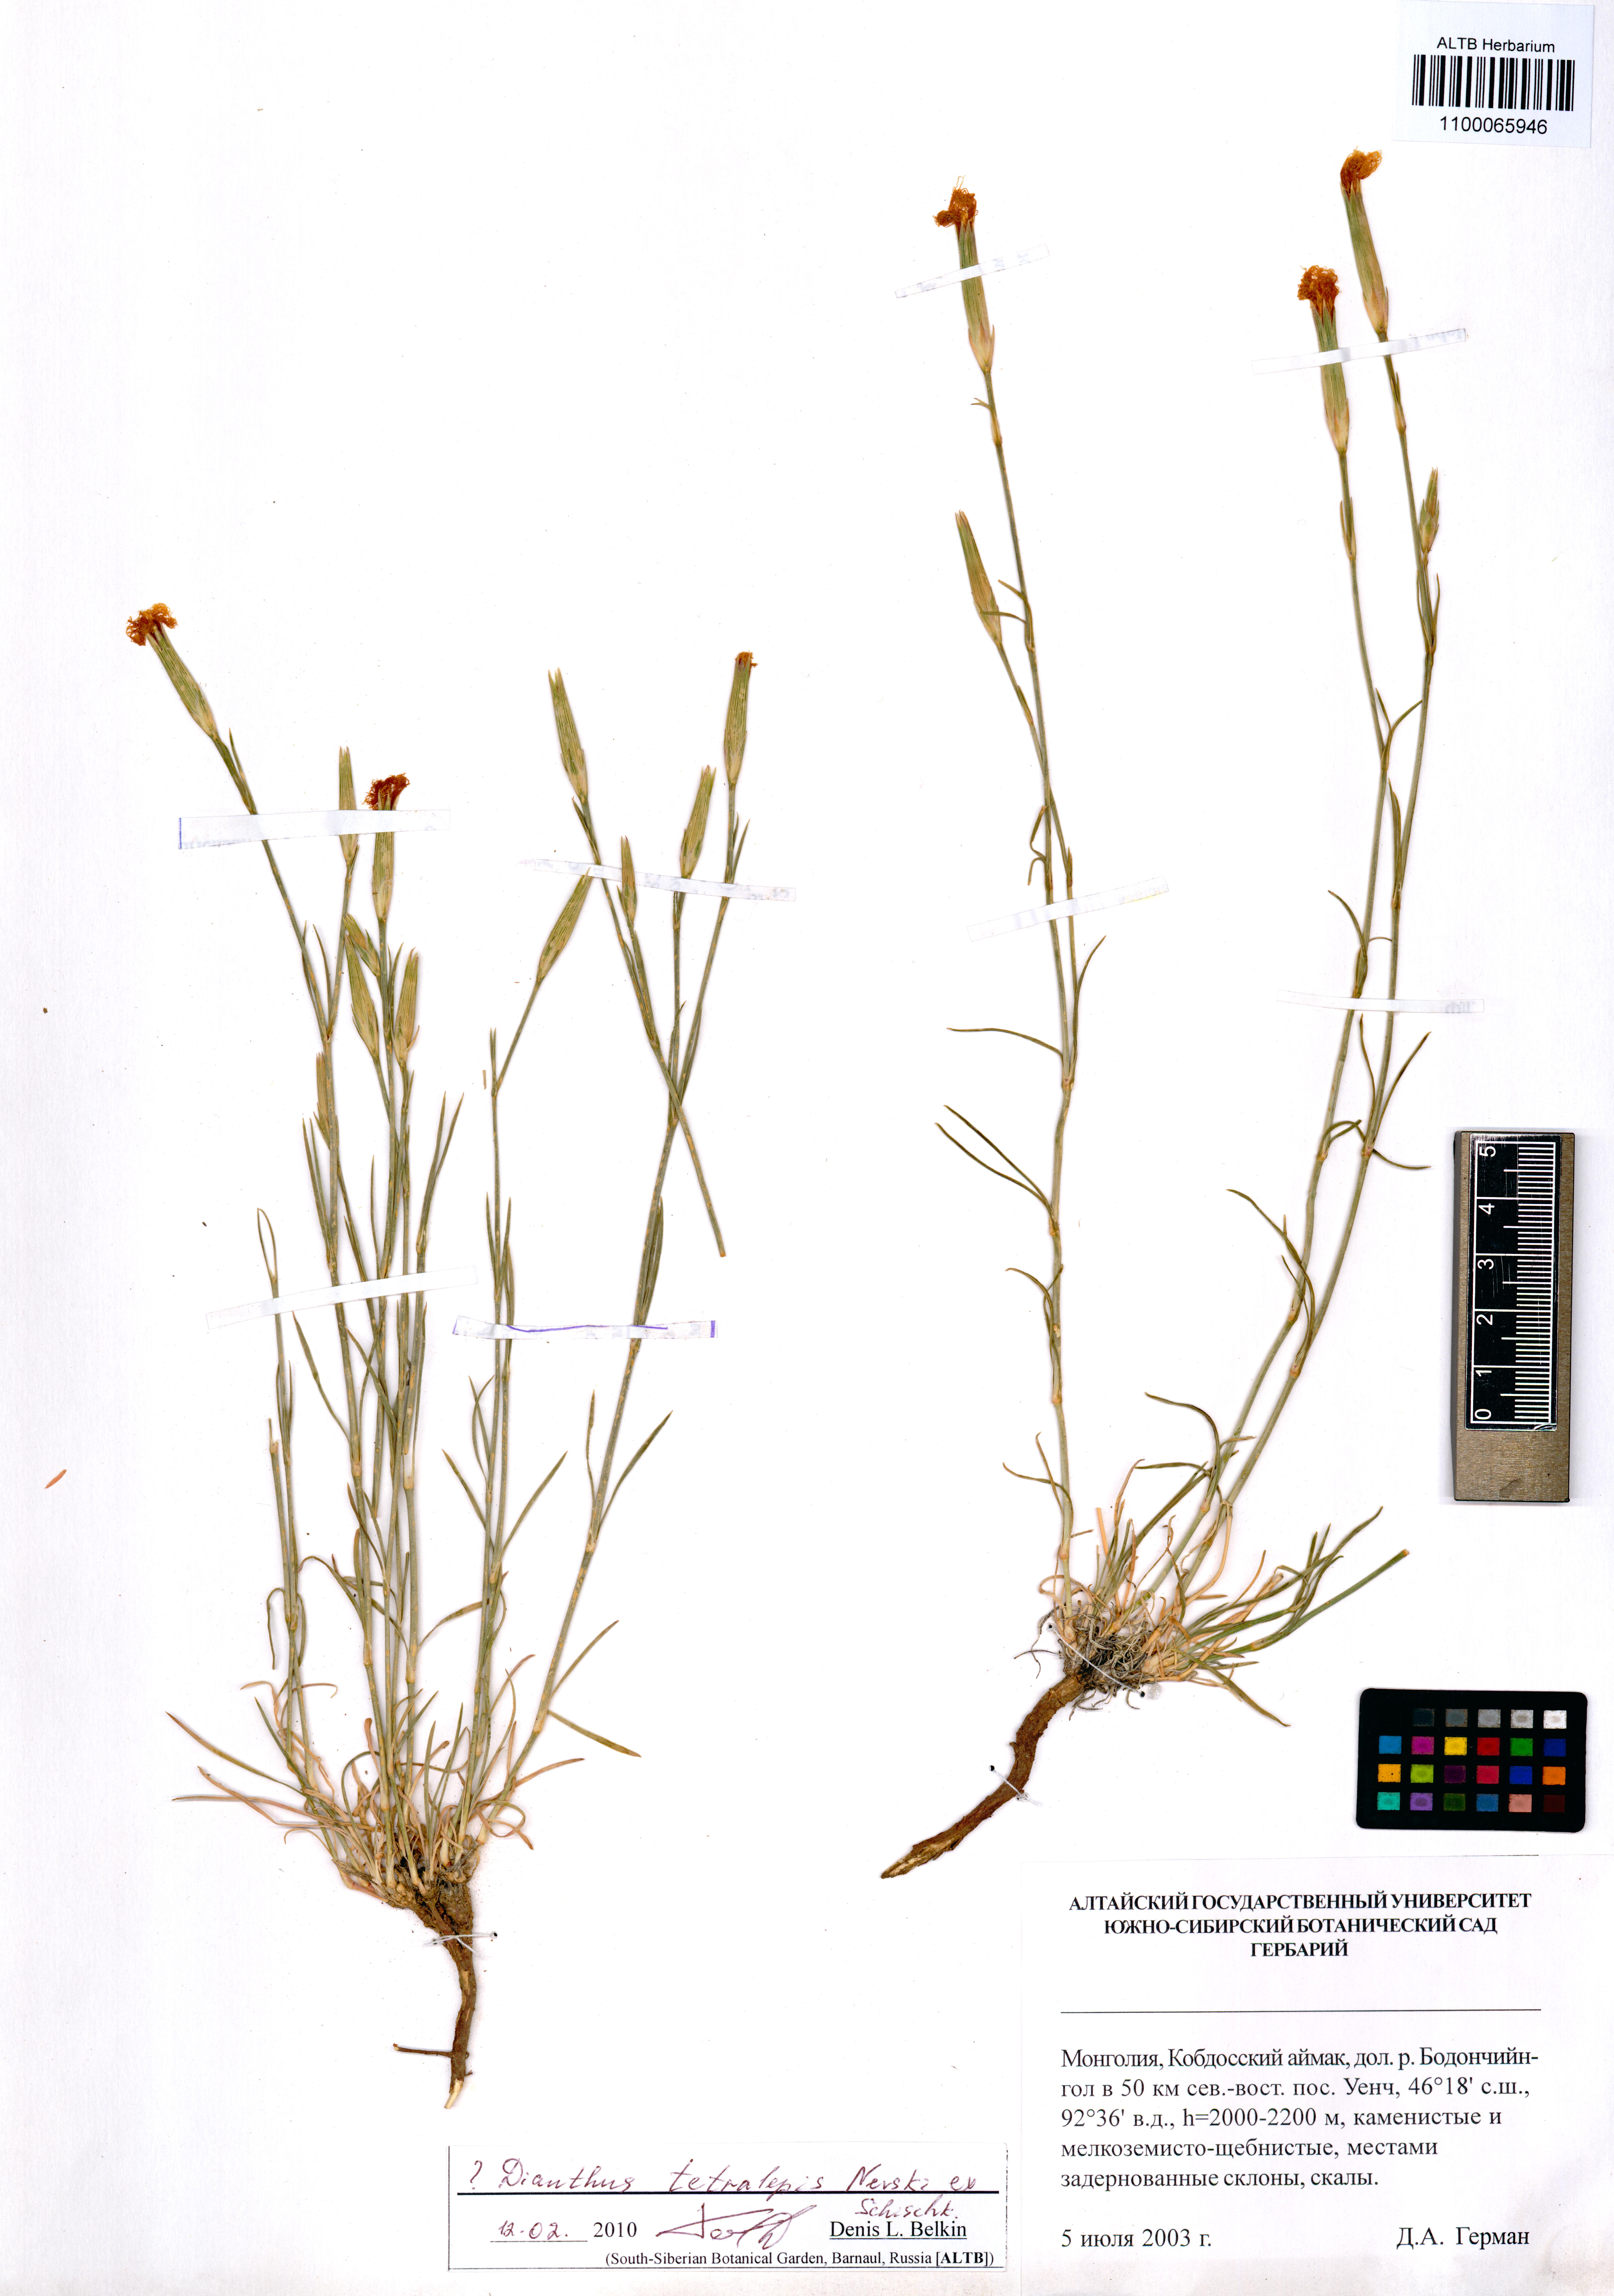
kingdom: Plantae
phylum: Tracheophyta
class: Magnoliopsida
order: Caryophyllales
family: Caryophyllaceae
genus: Dianthus
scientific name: Dianthus crinitus
